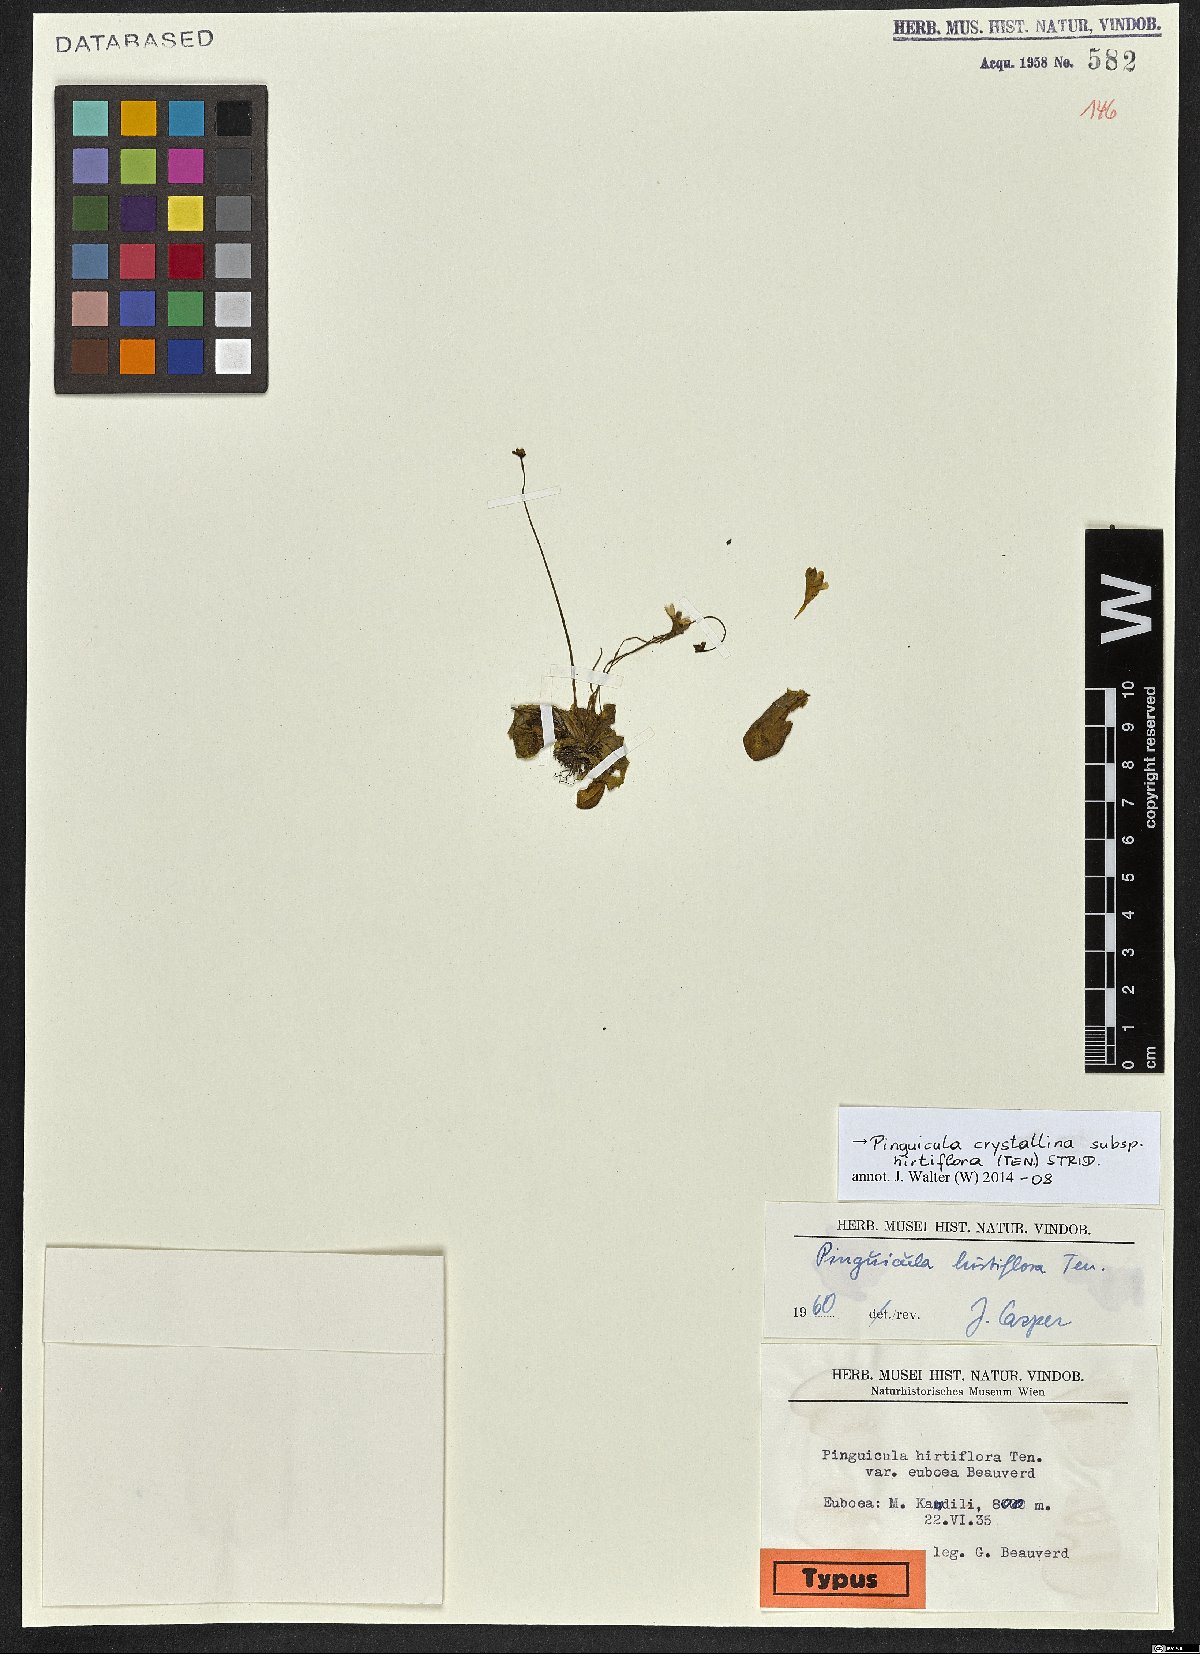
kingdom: Plantae
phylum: Tracheophyta
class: Magnoliopsida
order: Lamiales
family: Lentibulariaceae
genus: Pinguicula
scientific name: Pinguicula crystallina
